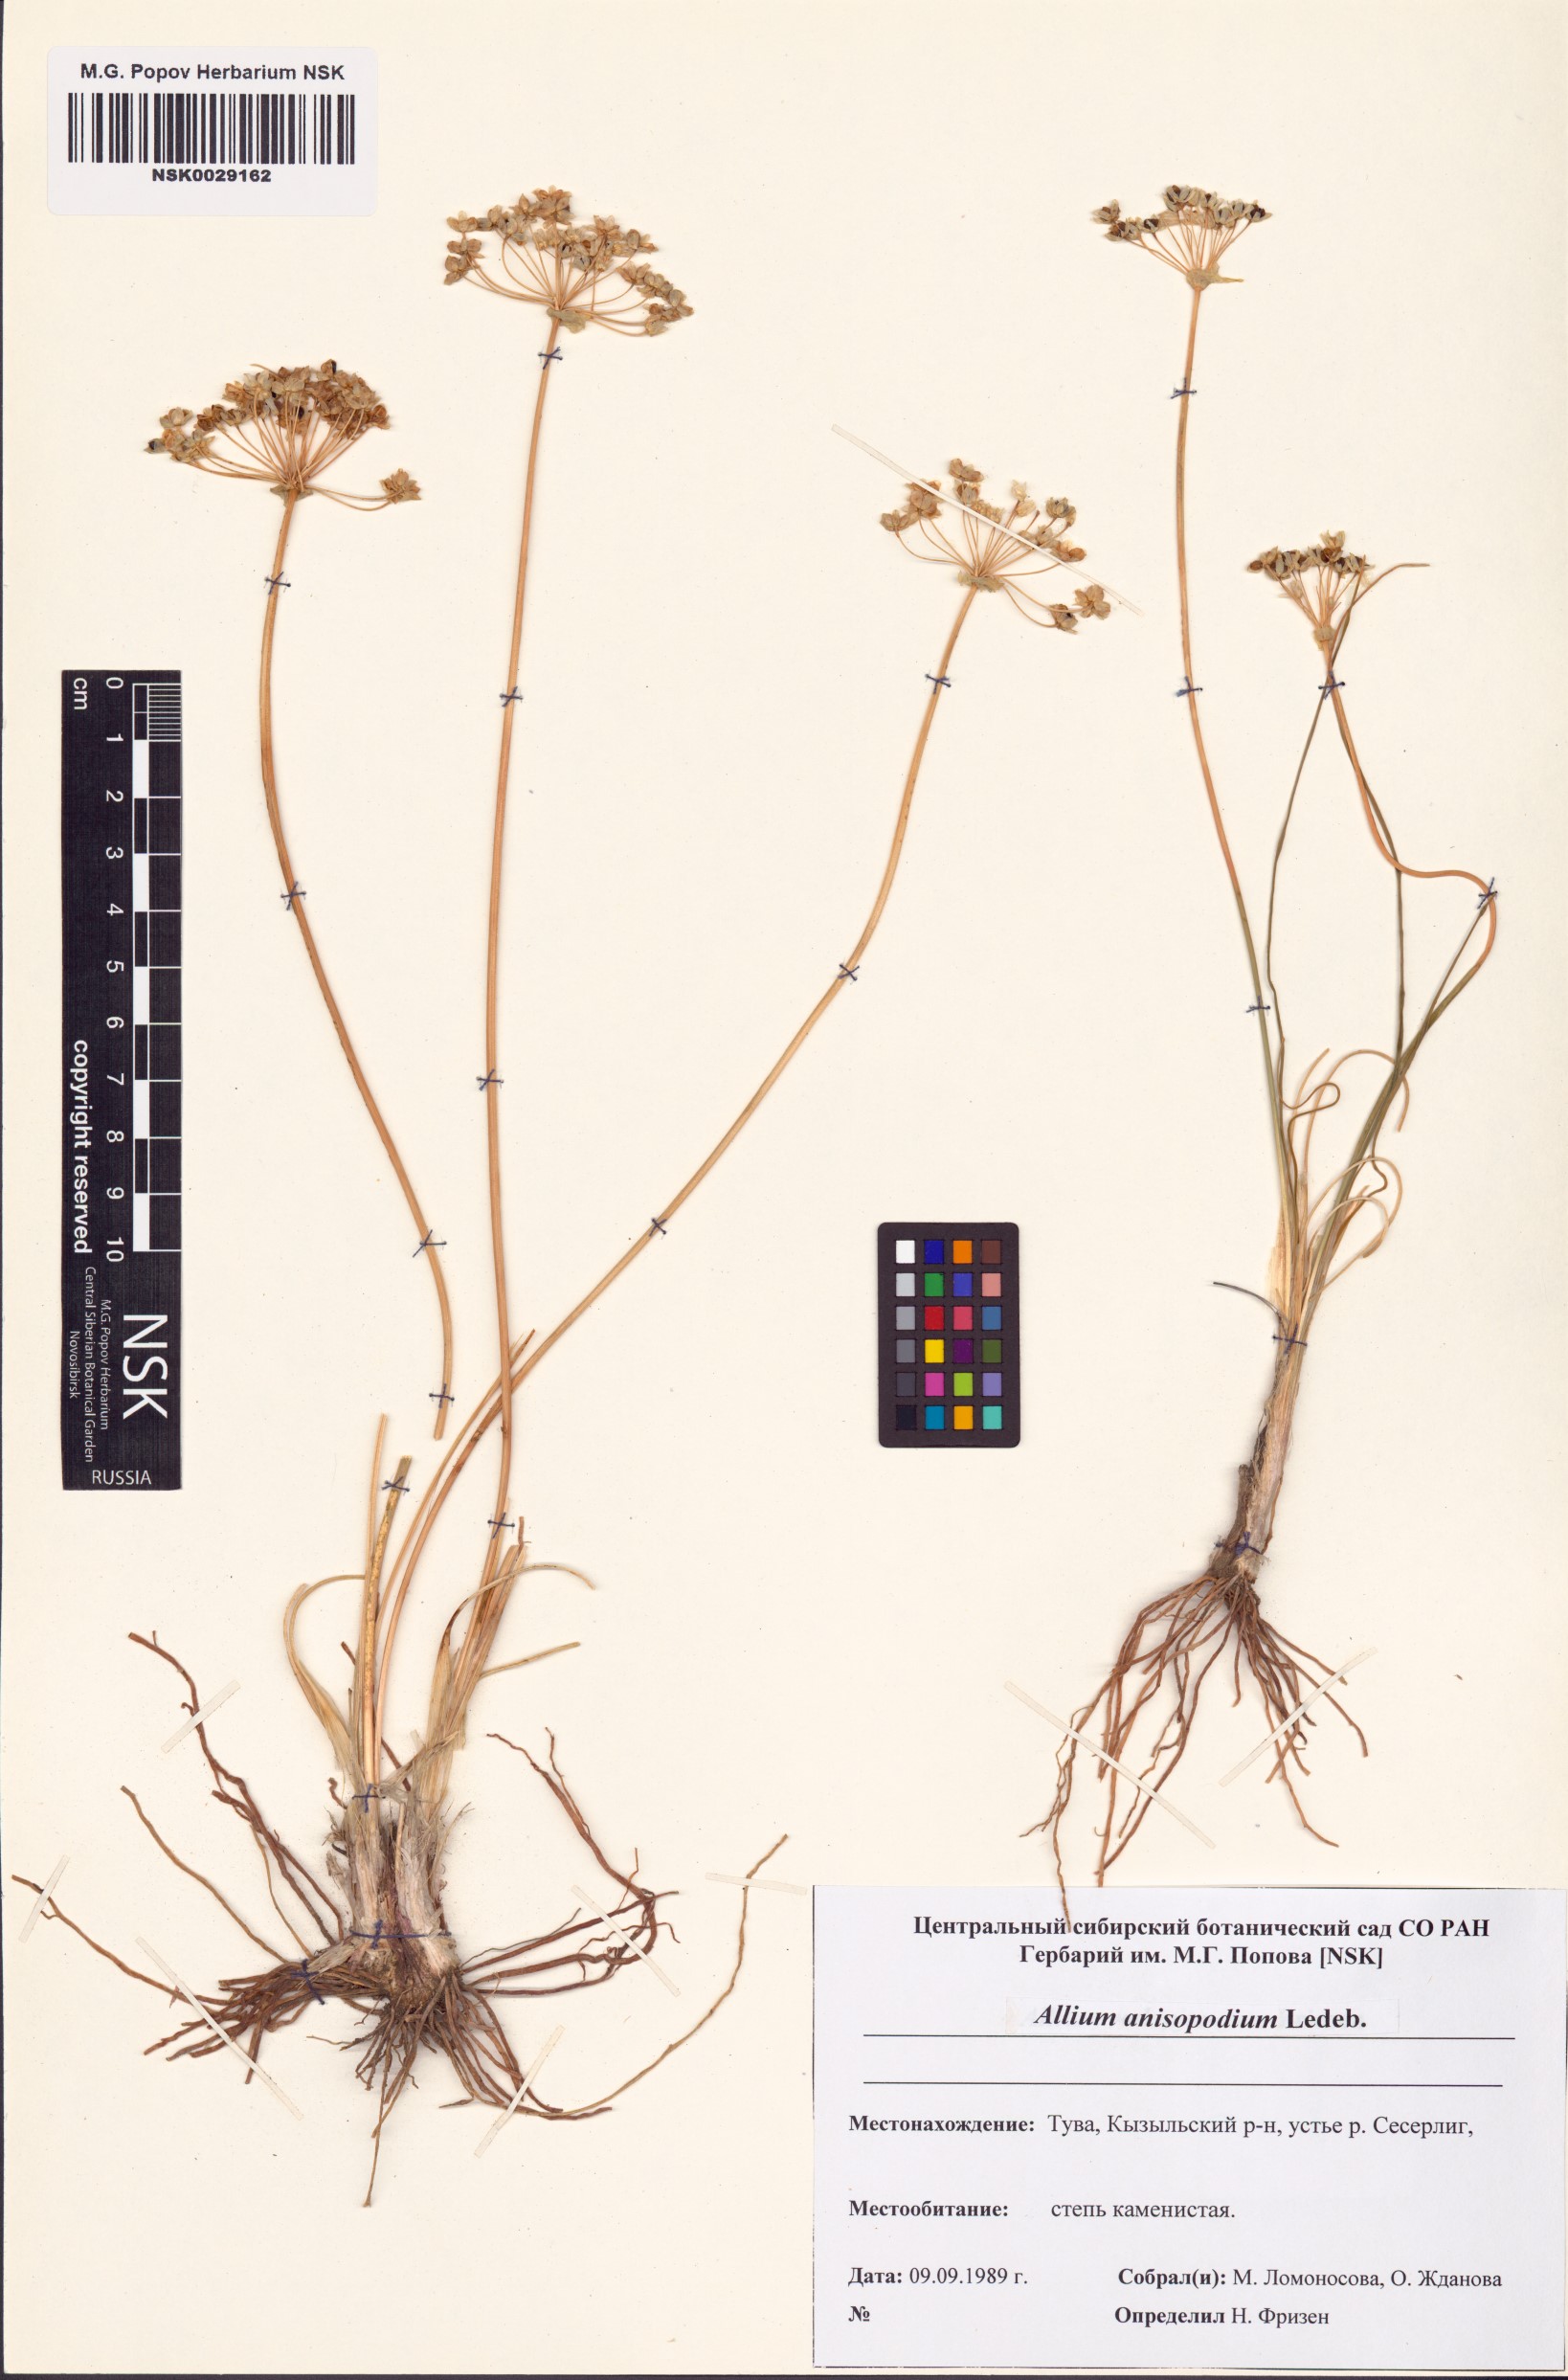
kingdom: Plantae
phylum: Tracheophyta
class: Liliopsida
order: Asparagales
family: Amaryllidaceae
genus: Allium
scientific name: Allium anisopodium
